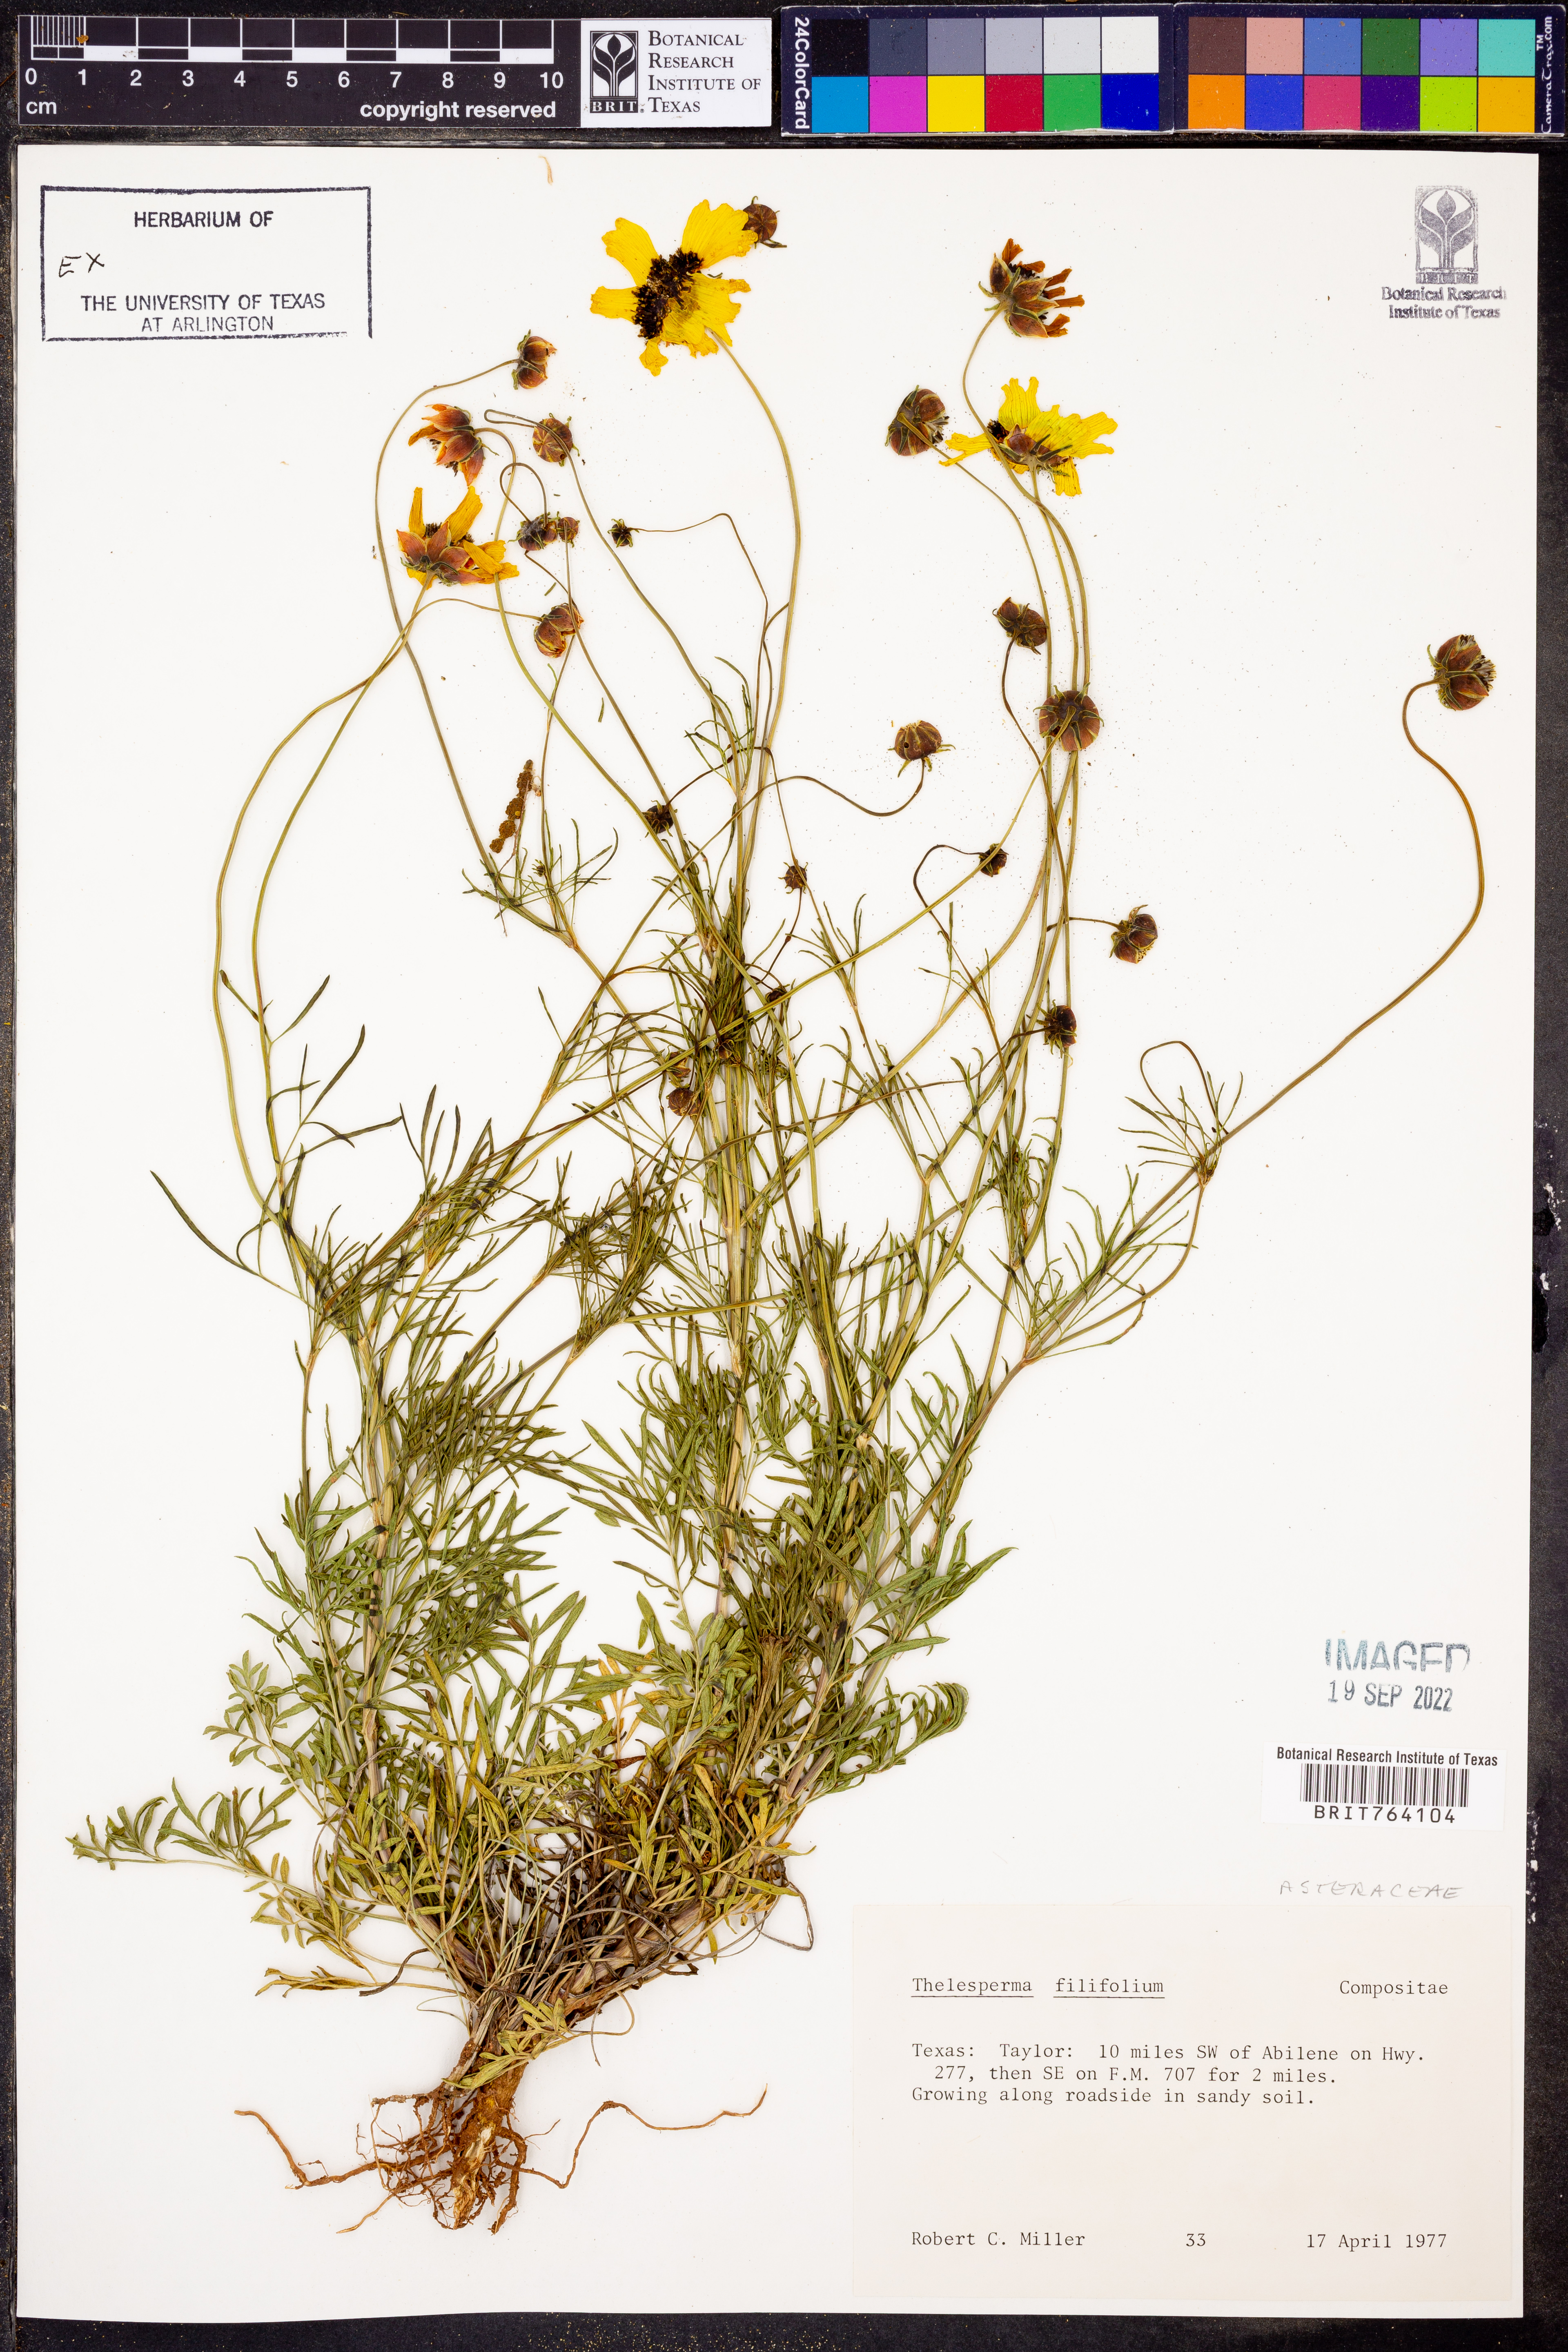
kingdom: Plantae
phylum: Tracheophyta
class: Magnoliopsida
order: Asterales
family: Asteraceae
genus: Thelesperma
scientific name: Thelesperma filifolium
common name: Stiff greenthread
